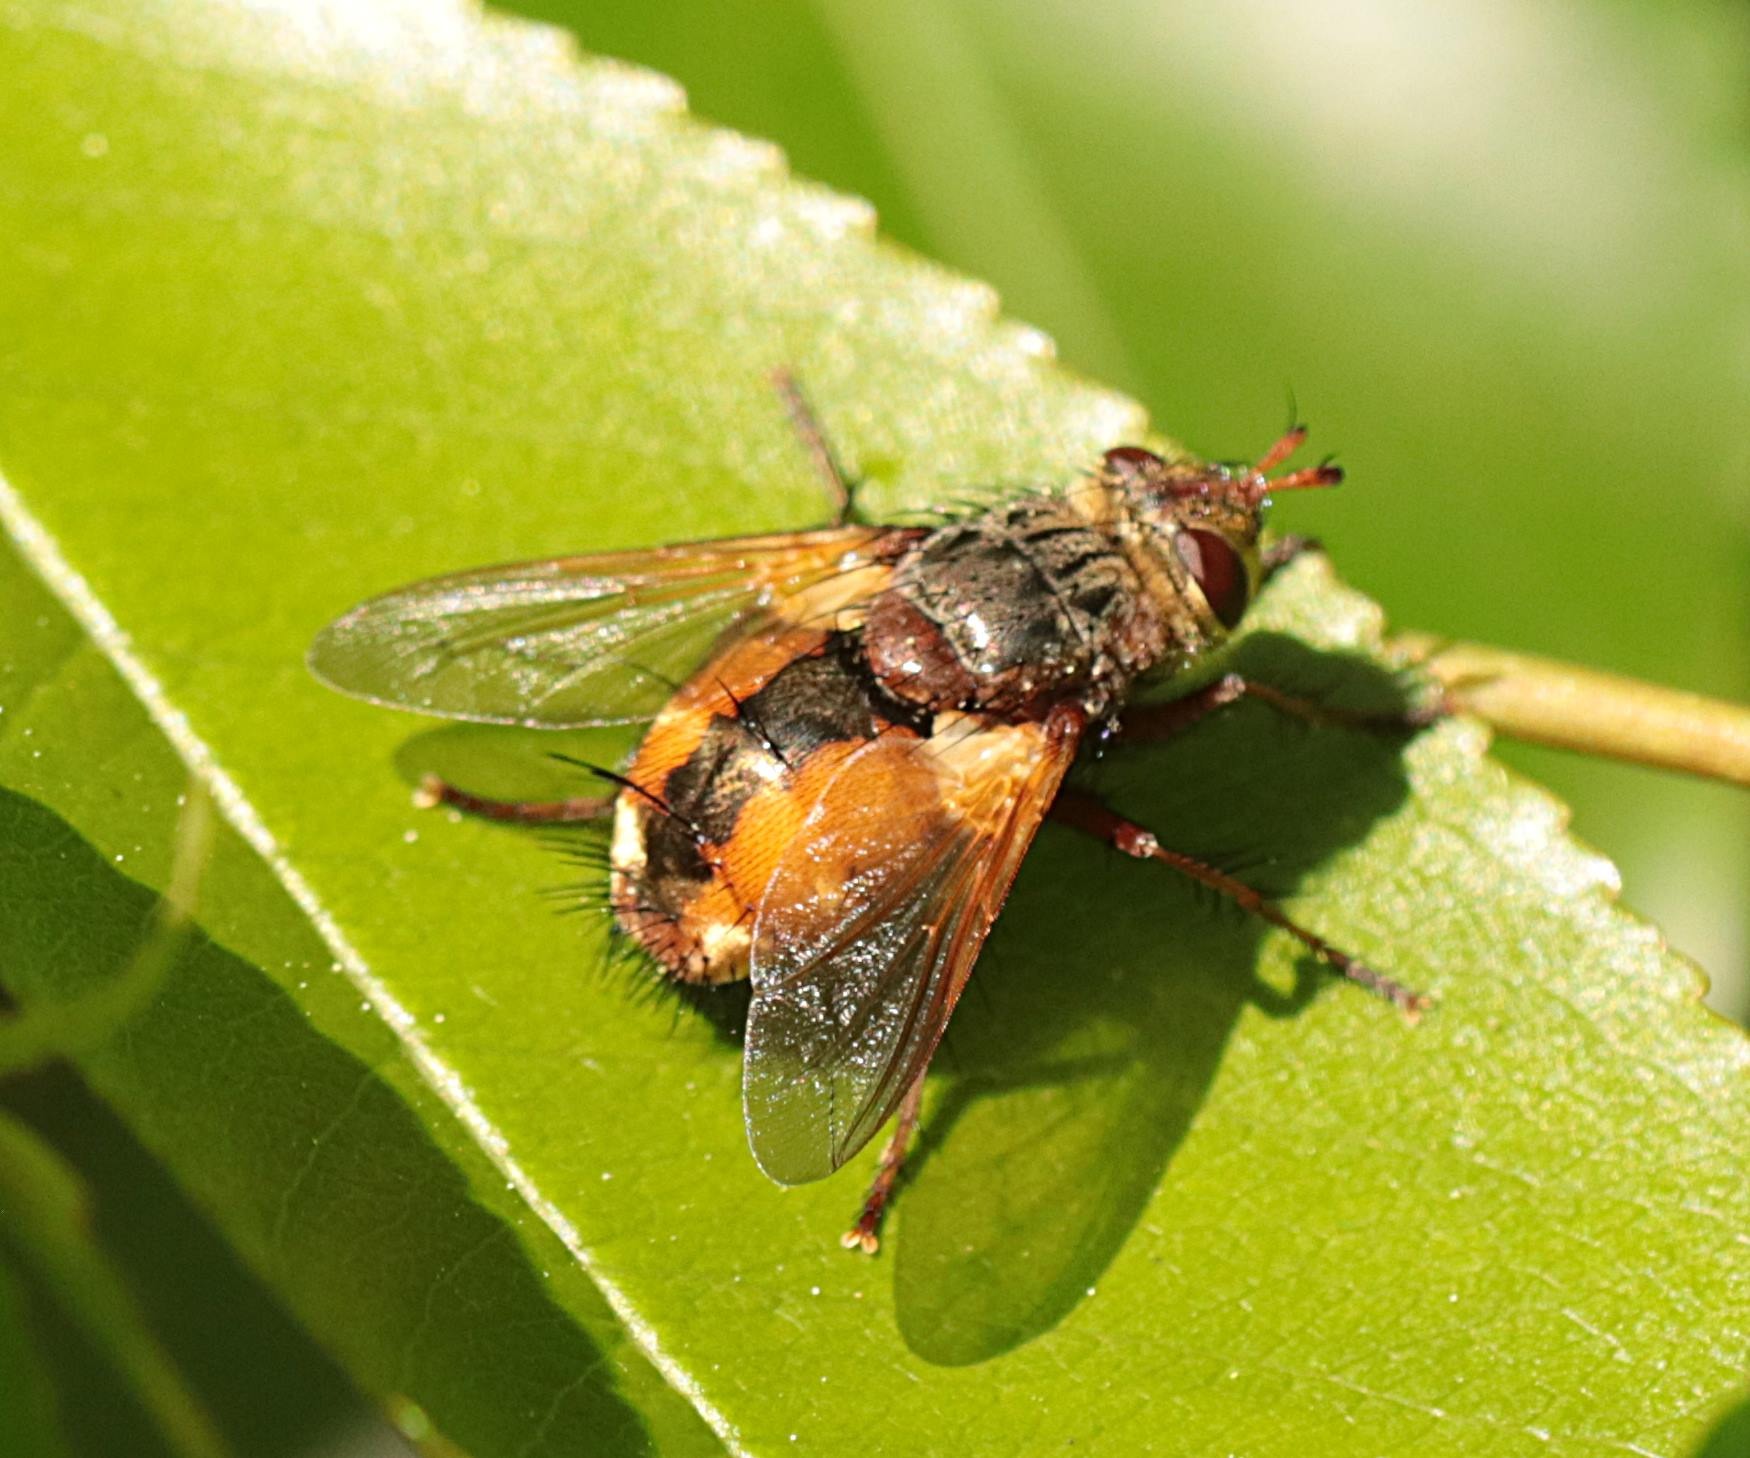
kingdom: Animalia
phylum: Arthropoda
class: Insecta
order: Diptera
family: Tachinidae
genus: Tachina
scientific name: Tachina fera
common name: Mellemfluen oskar
